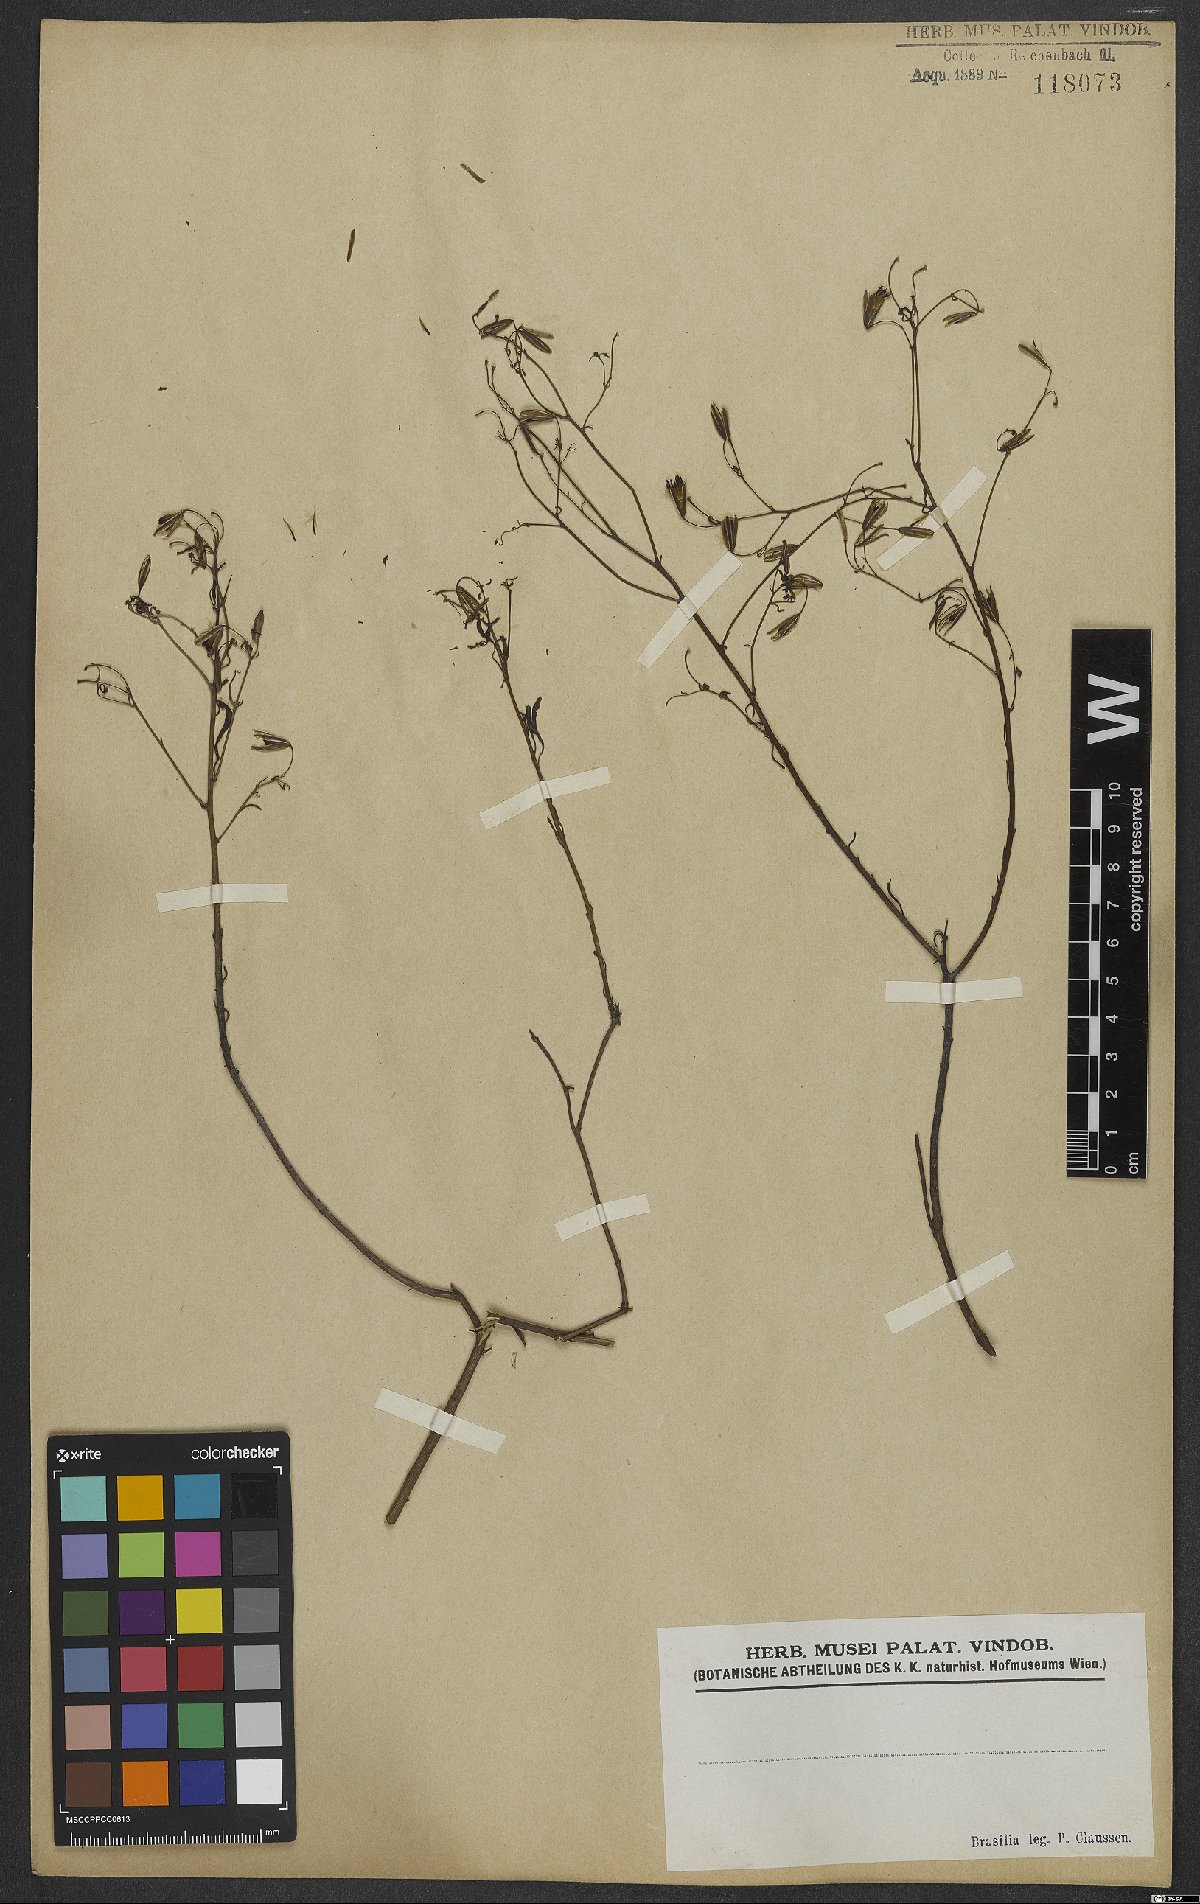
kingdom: Plantae
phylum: Tracheophyta
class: Magnoliopsida
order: Asterales
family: Asteraceae
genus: Porophyllum
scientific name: Porophyllum
